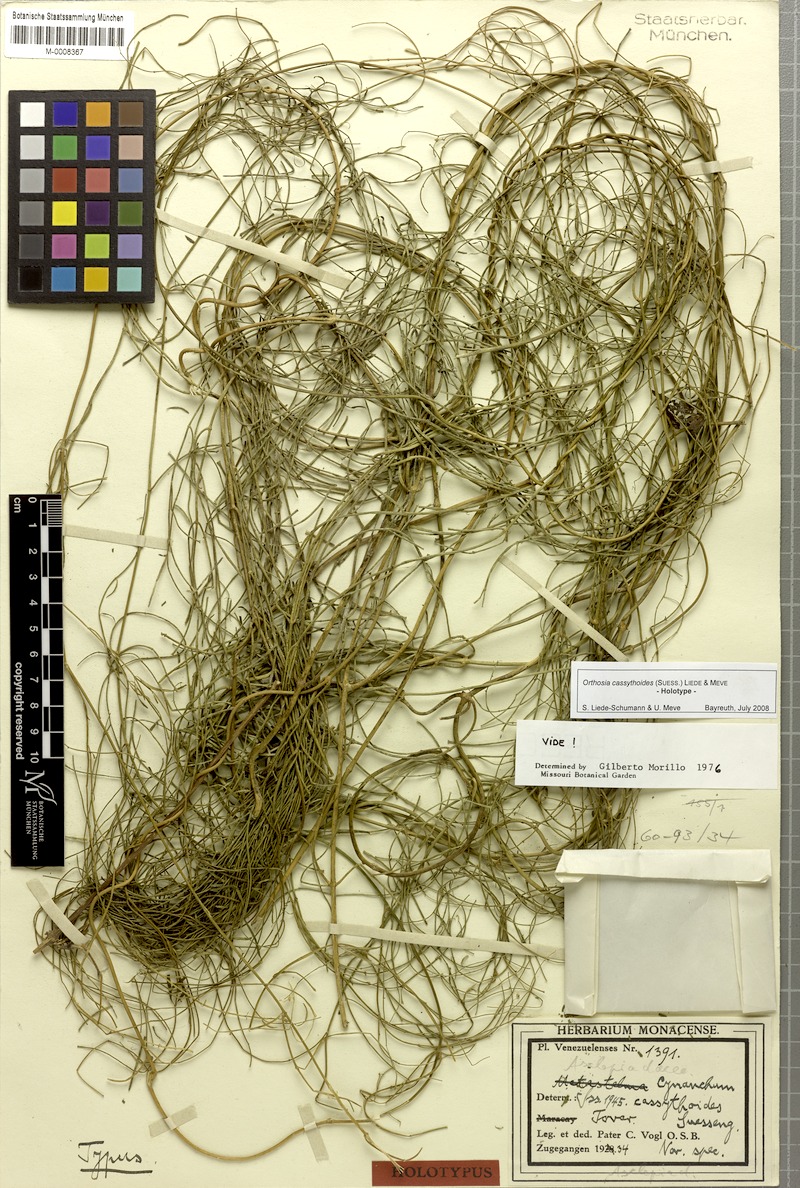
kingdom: Plantae
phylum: Tracheophyta
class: Magnoliopsida
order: Gentianales
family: Apocynaceae
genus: Orthosia
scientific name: Orthosia cassythoides
